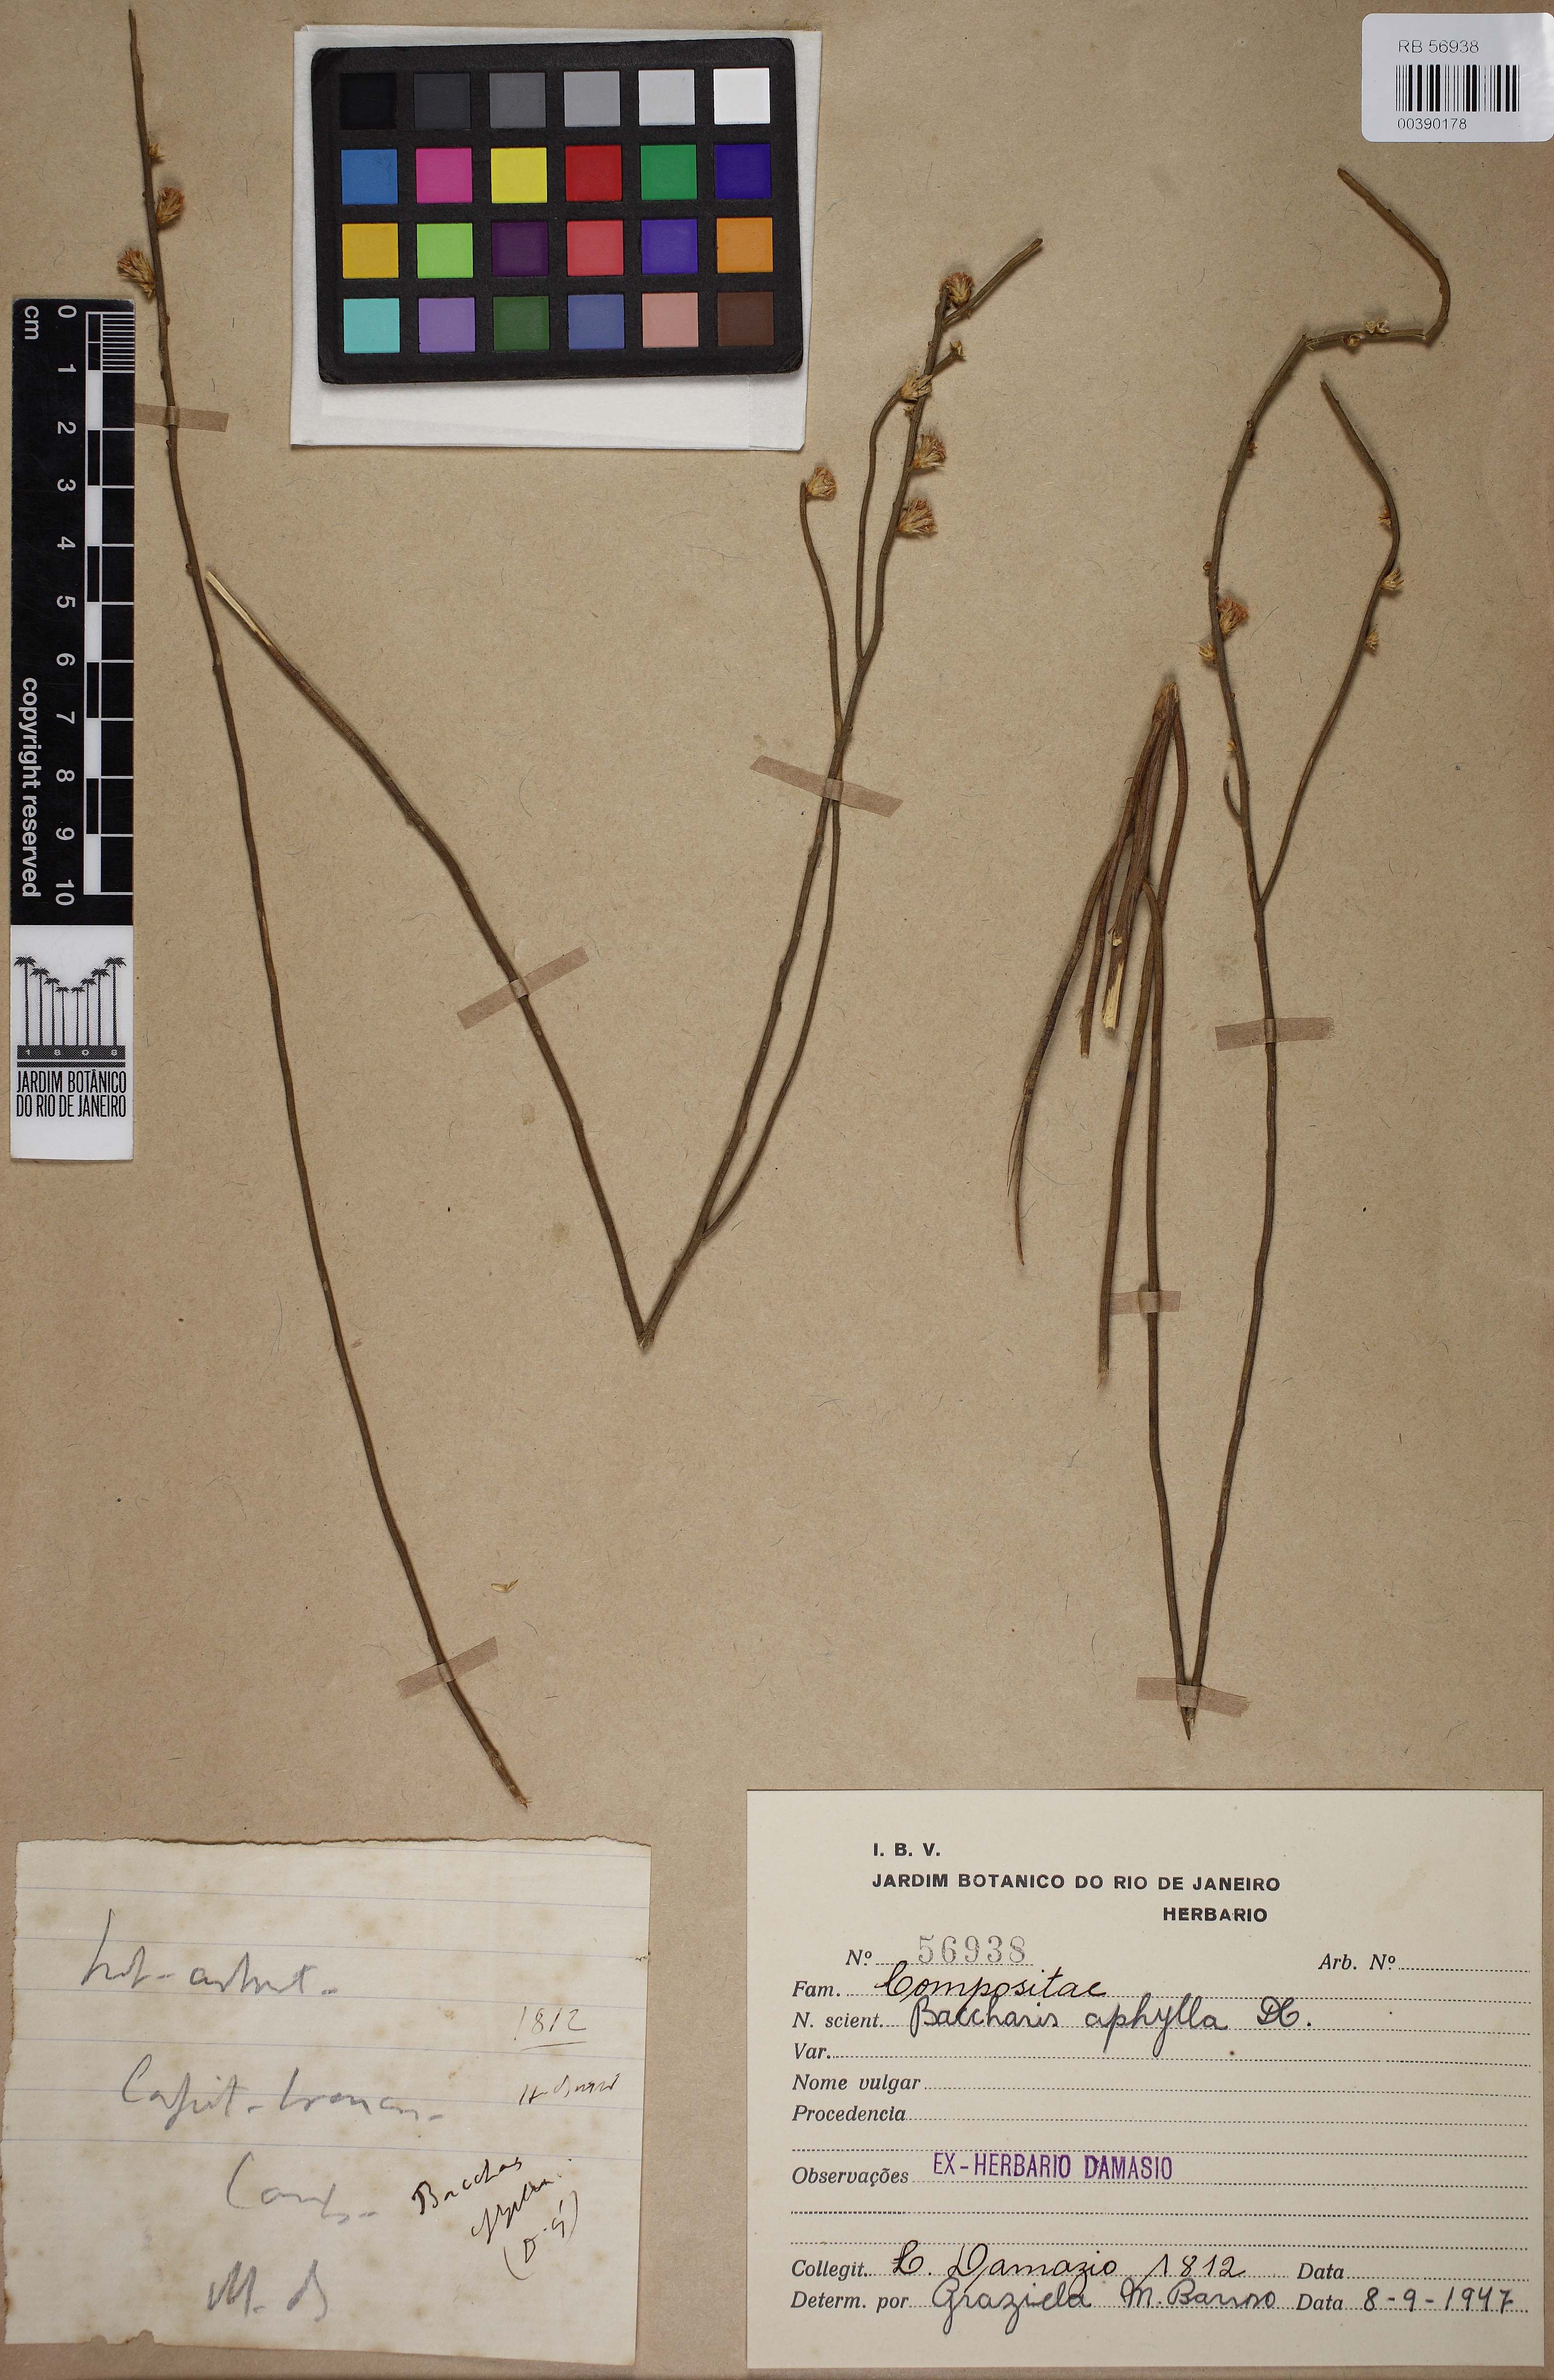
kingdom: Plantae
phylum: Tracheophyta
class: Magnoliopsida
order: Asterales
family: Asteraceae
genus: Baccharis
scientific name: Baccharis aphylla
